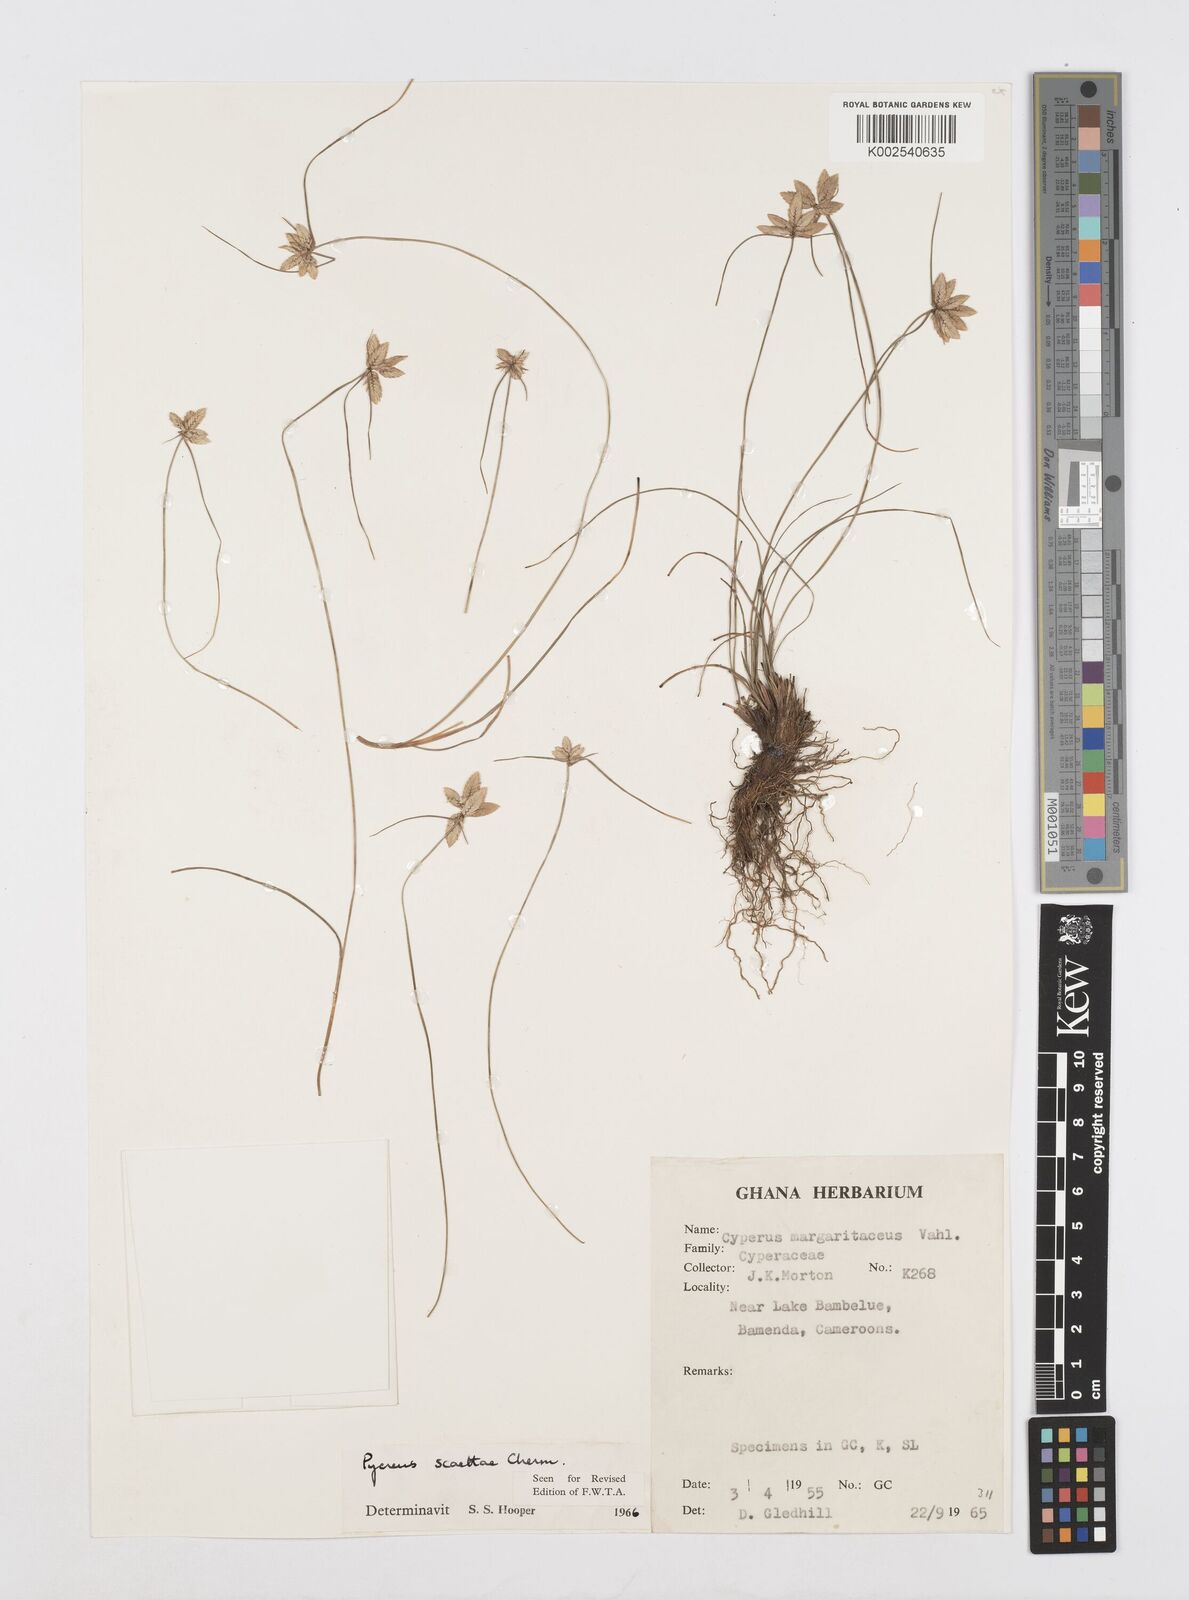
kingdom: Plantae
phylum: Tracheophyta
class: Liliopsida
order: Poales
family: Cyperaceae
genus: Cyperus
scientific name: Cyperus scaettae
